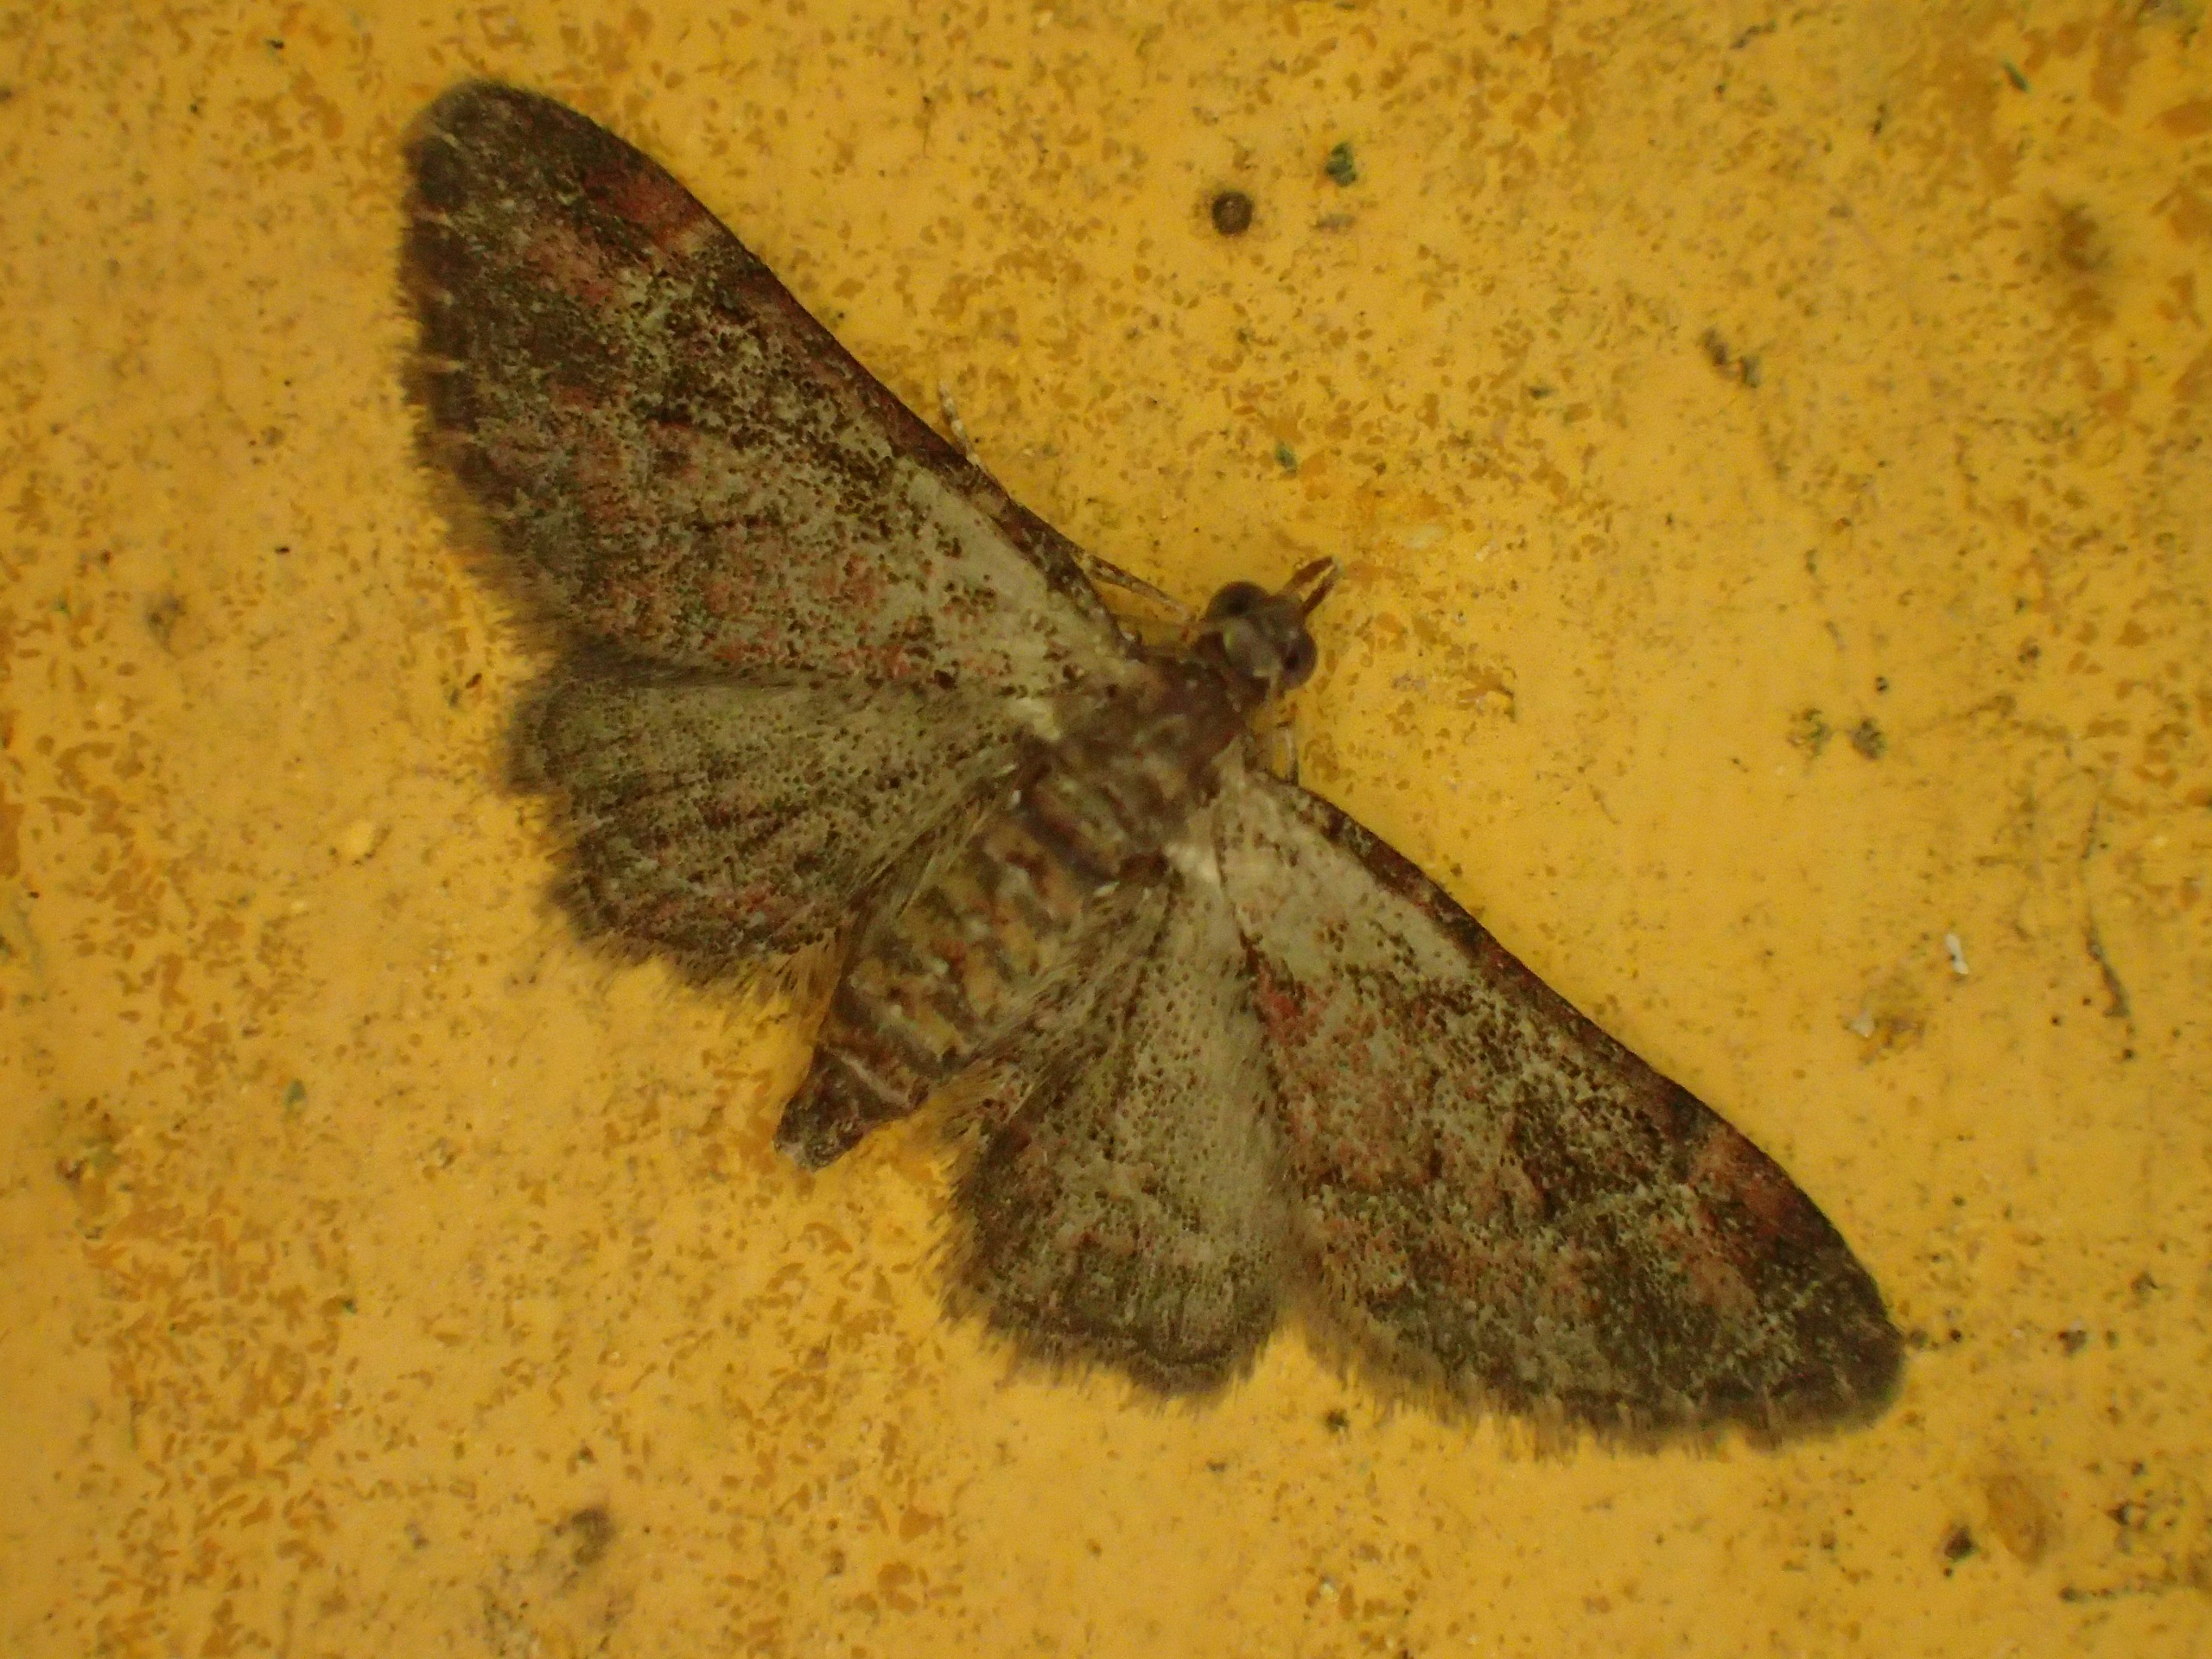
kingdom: Animalia
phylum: Arthropoda
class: Insecta
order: Lepidoptera
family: Geometridae
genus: Gymnoscelis
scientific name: Gymnoscelis rufifasciata
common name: Rødbåndet dværgmåler
